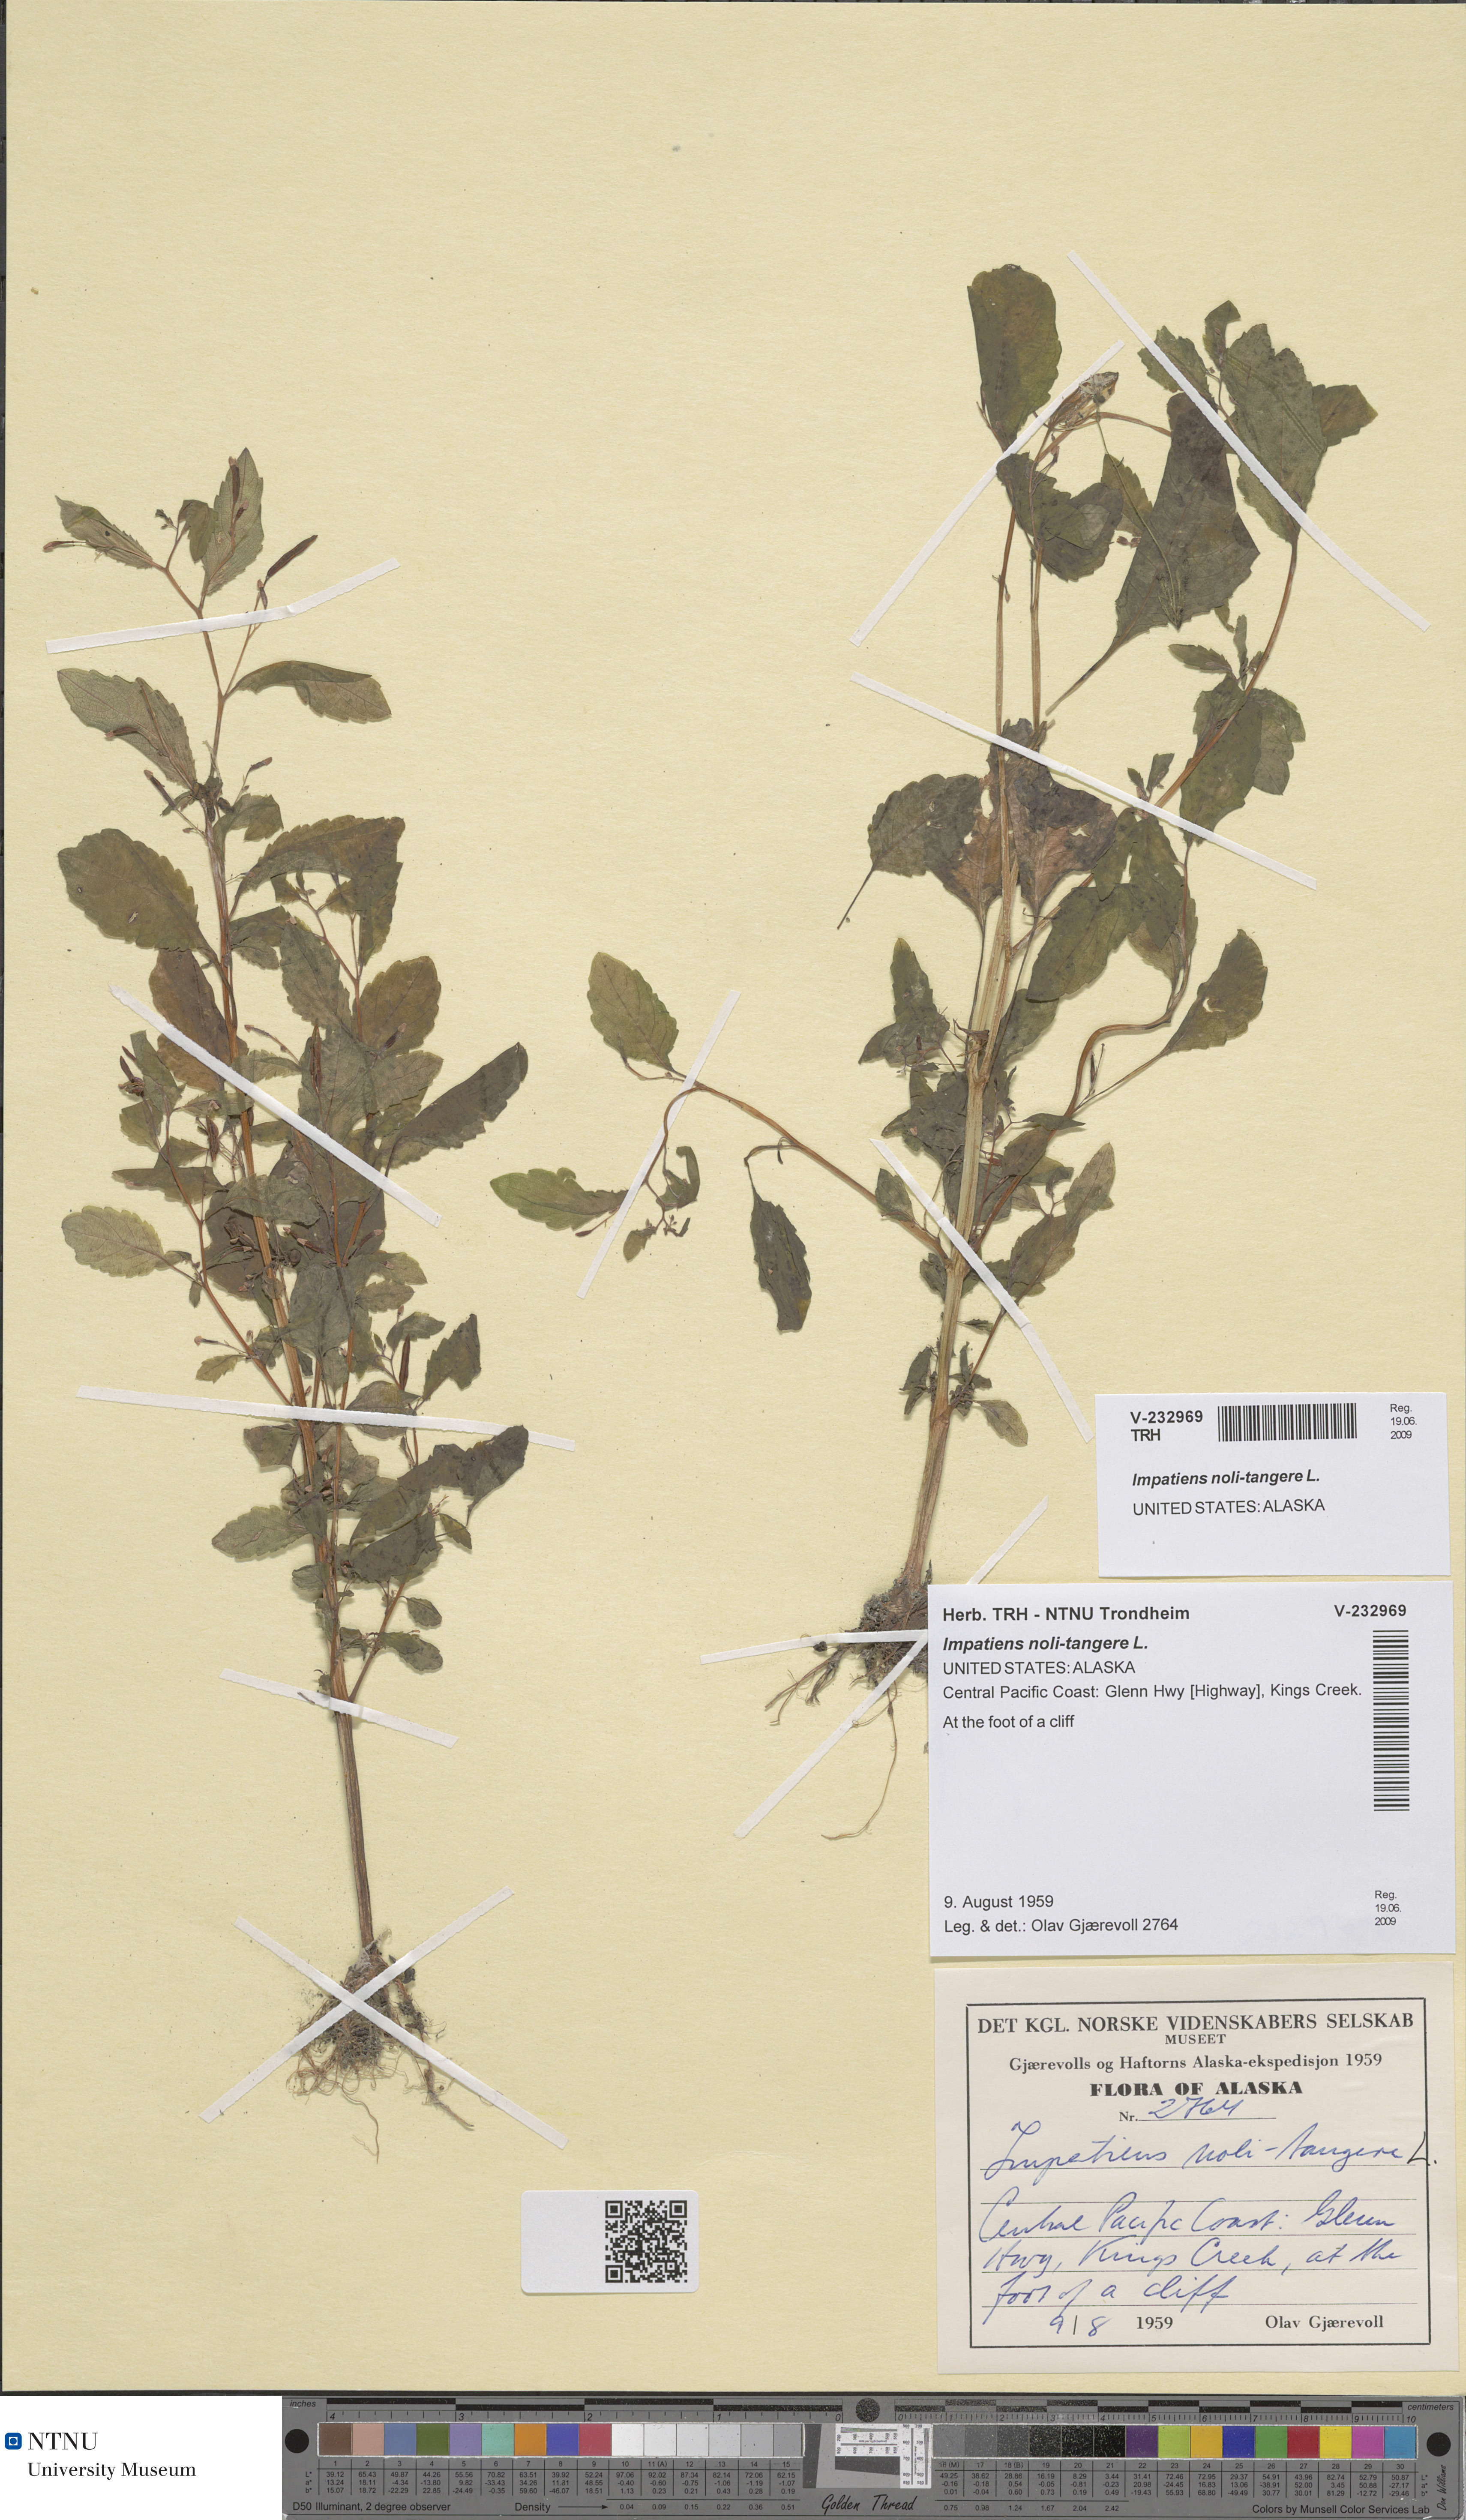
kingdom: Plantae
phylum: Tracheophyta
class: Magnoliopsida
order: Ericales
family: Balsaminaceae
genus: Impatiens
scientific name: Impatiens noli-tangere
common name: Touch-me-not balsam
